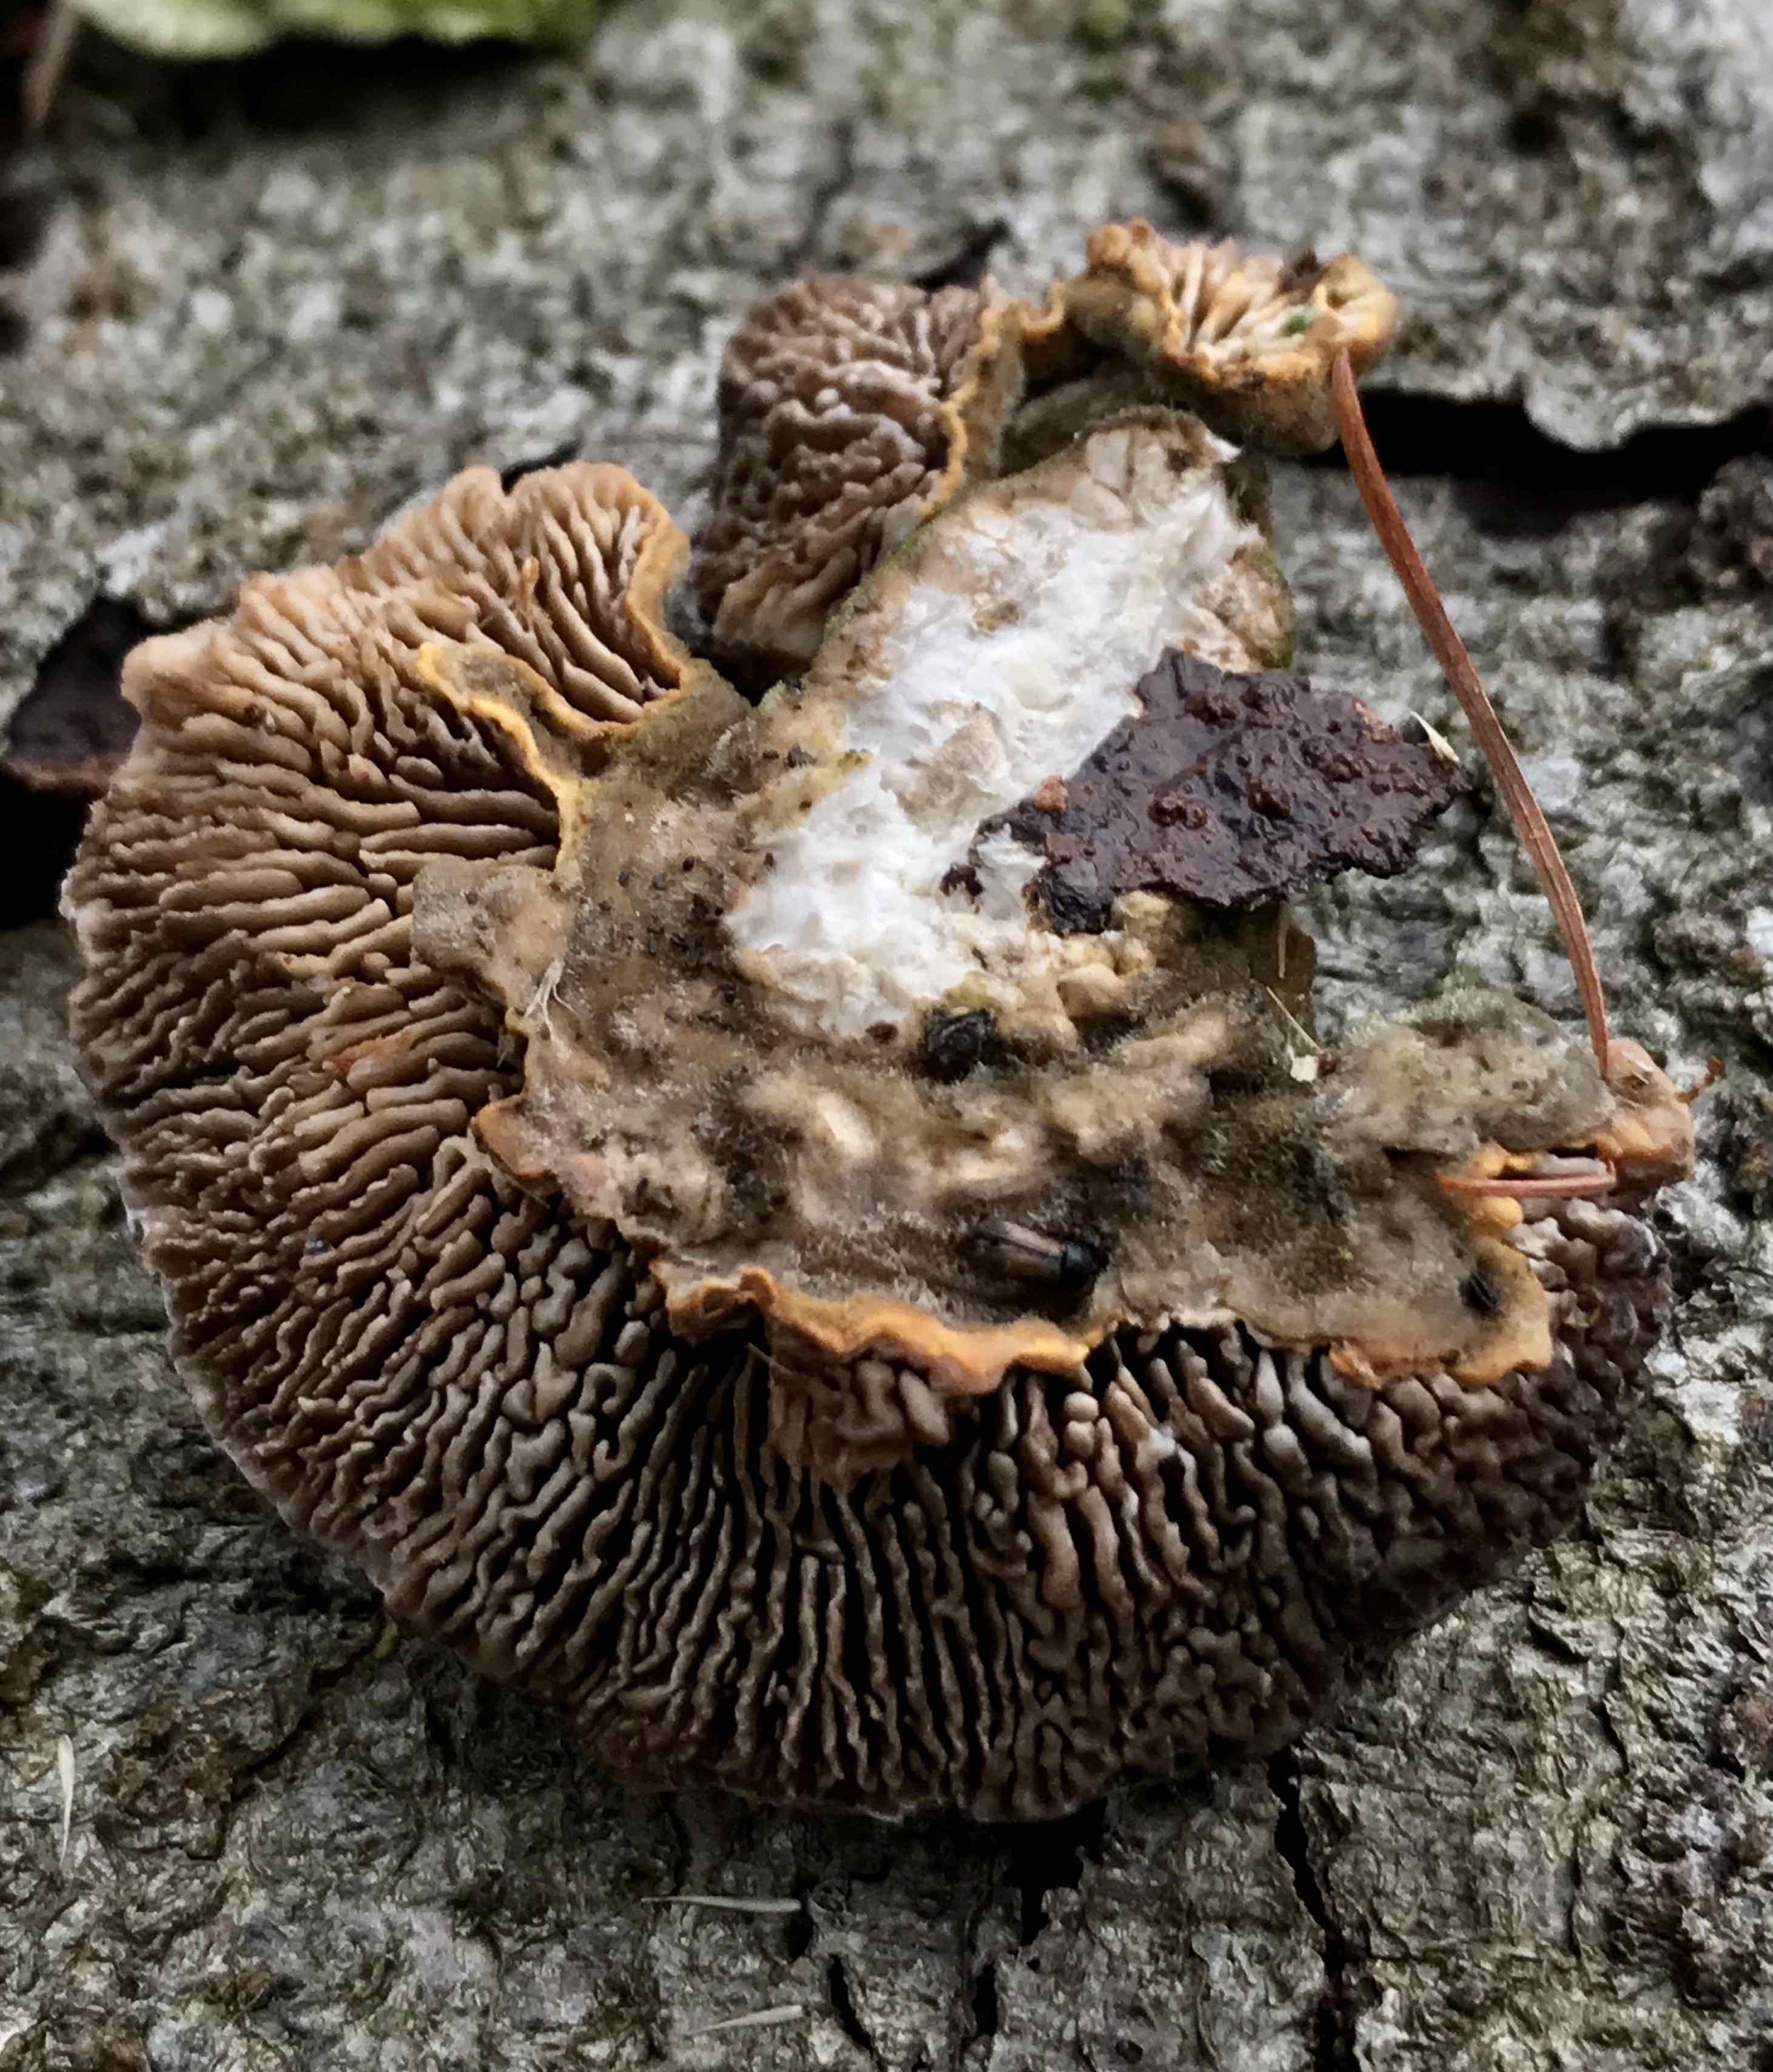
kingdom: Fungi
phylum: Basidiomycota
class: Agaricomycetes
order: Polyporales
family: Polyporaceae
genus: Lenzites
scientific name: Lenzites betulinus
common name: birke-læderporesvamp
